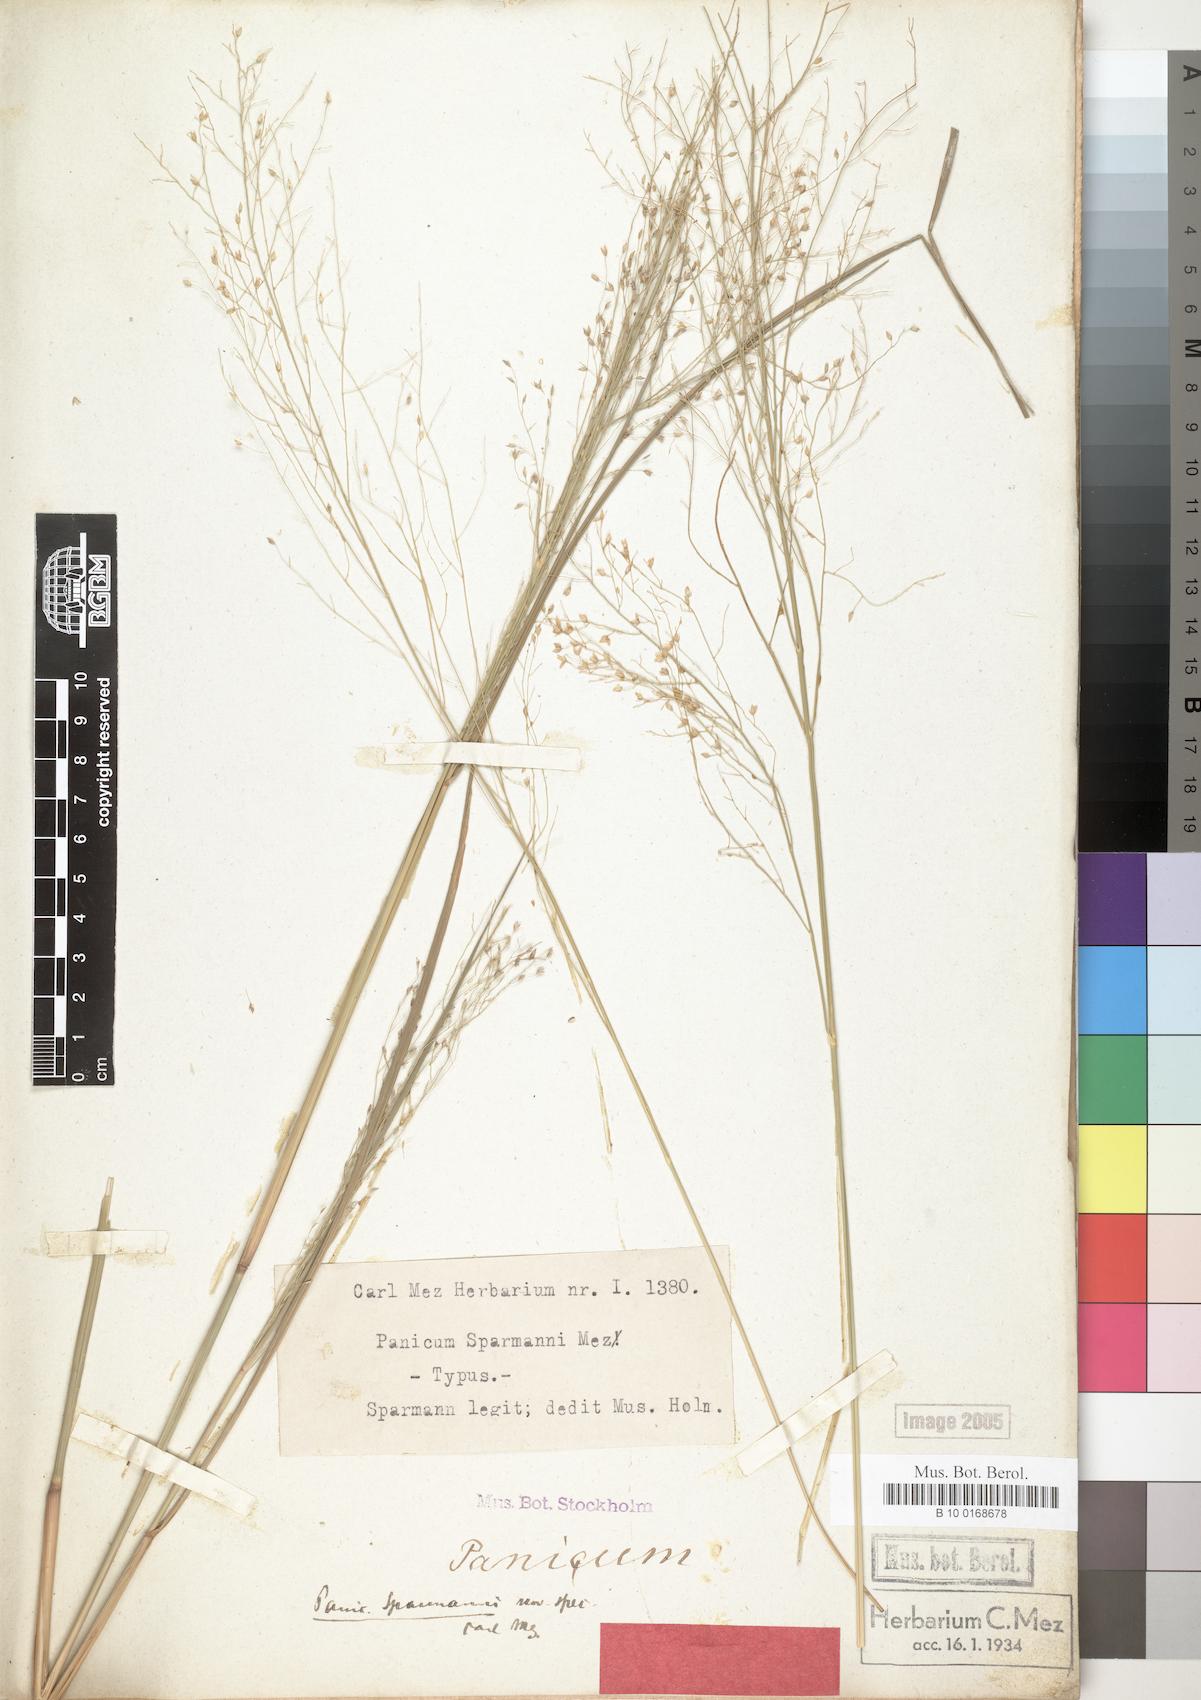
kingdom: Plantae
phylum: Tracheophyta
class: Liliopsida
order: Poales
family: Poaceae
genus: Panicum
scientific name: Panicum fluviicola
